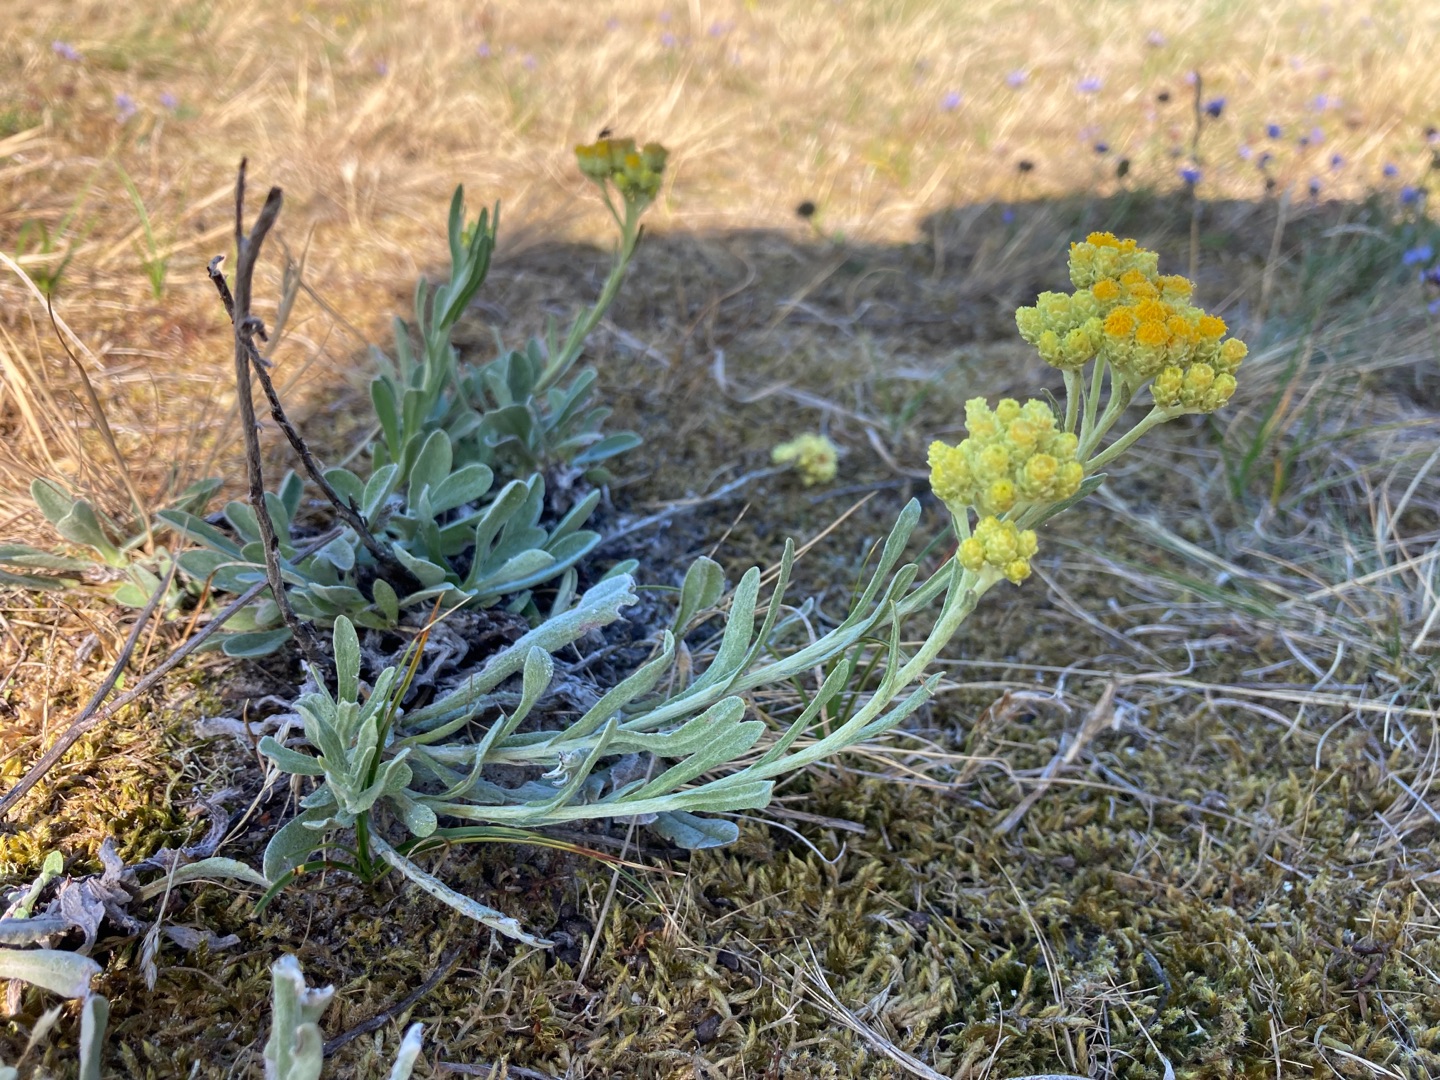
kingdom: Plantae
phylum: Tracheophyta
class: Magnoliopsida
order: Asterales
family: Asteraceae
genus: Helichrysum
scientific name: Helichrysum arenarium
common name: Gul evighedsblomst
